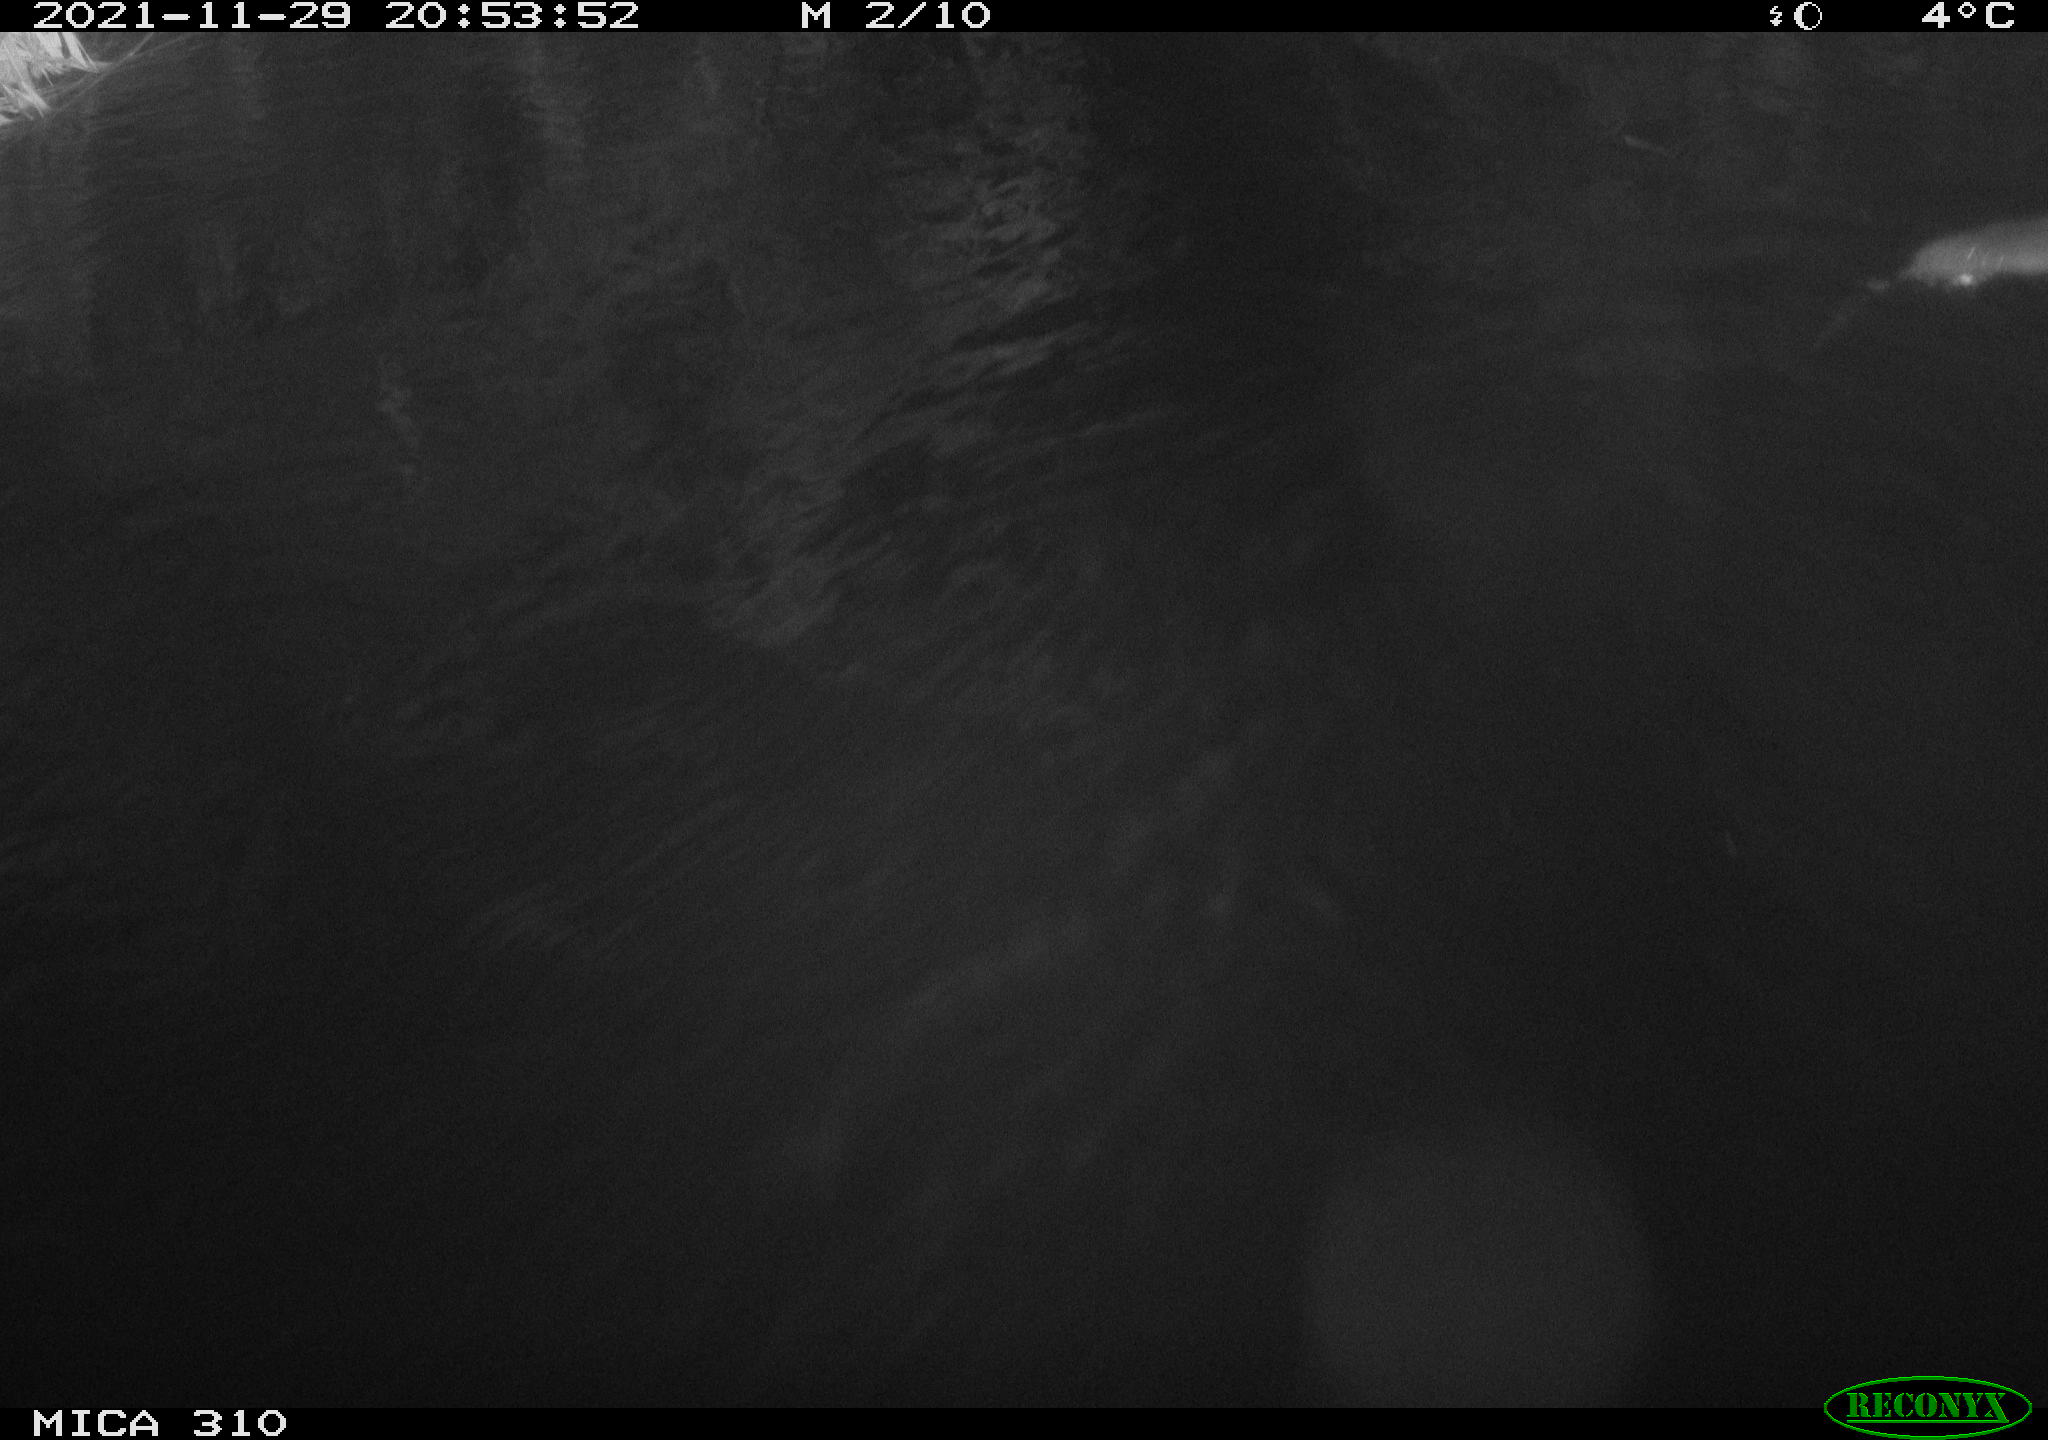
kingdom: Animalia
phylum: Chordata
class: Mammalia
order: Rodentia
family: Muridae
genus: Rattus
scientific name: Rattus norvegicus
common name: Brown rat
